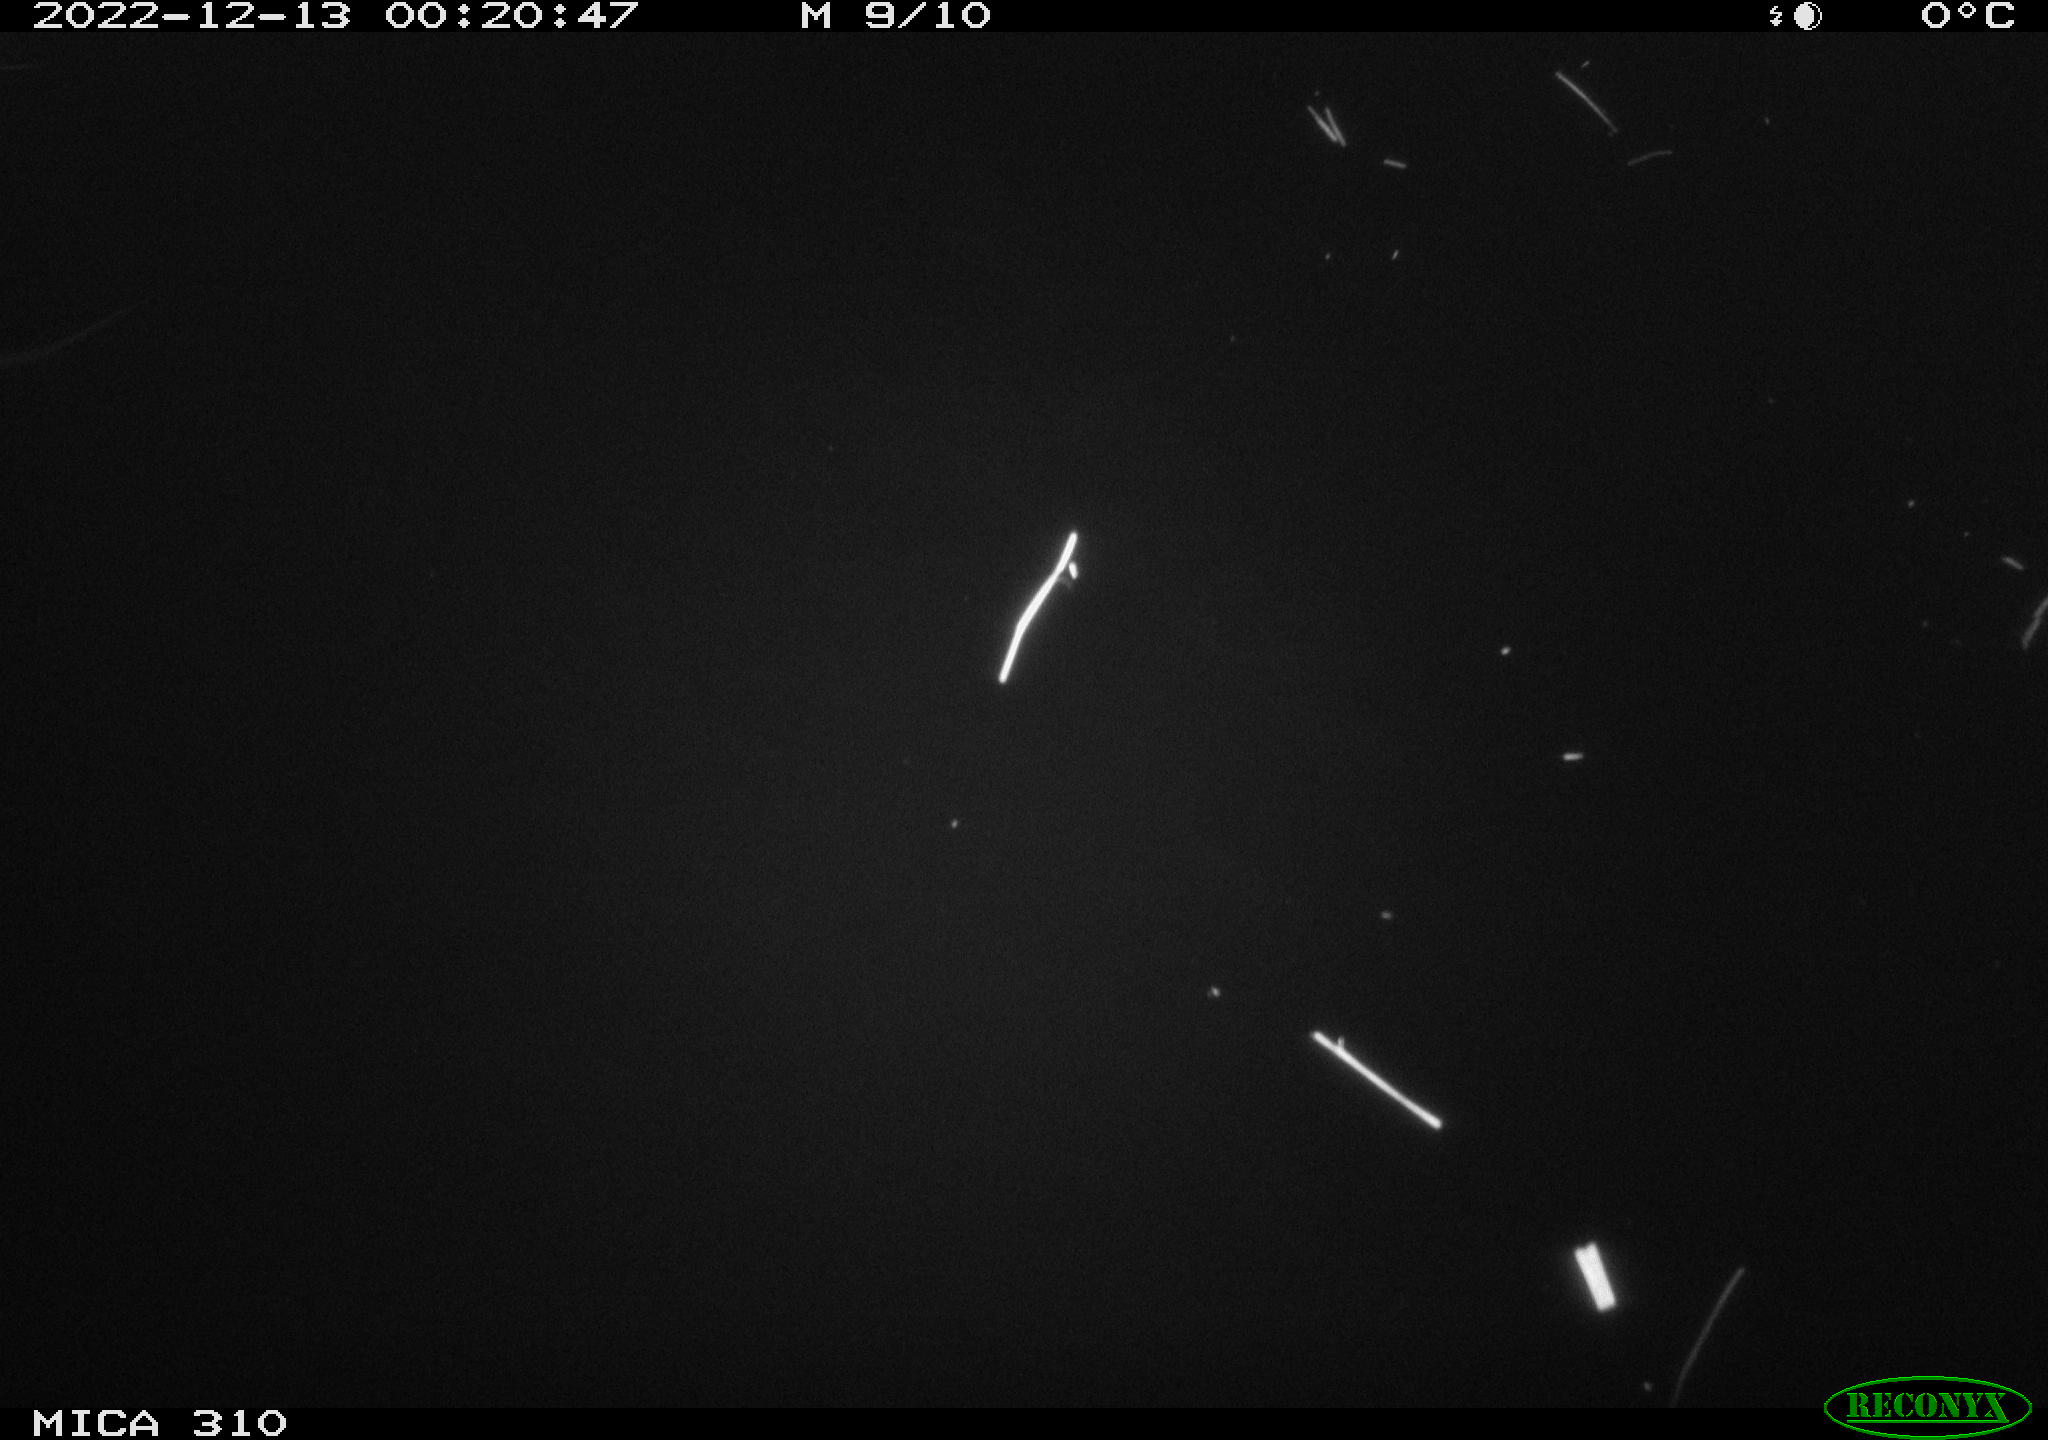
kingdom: Animalia
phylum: Chordata
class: Aves
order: Anseriformes
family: Anatidae
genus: Anas
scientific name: Anas
